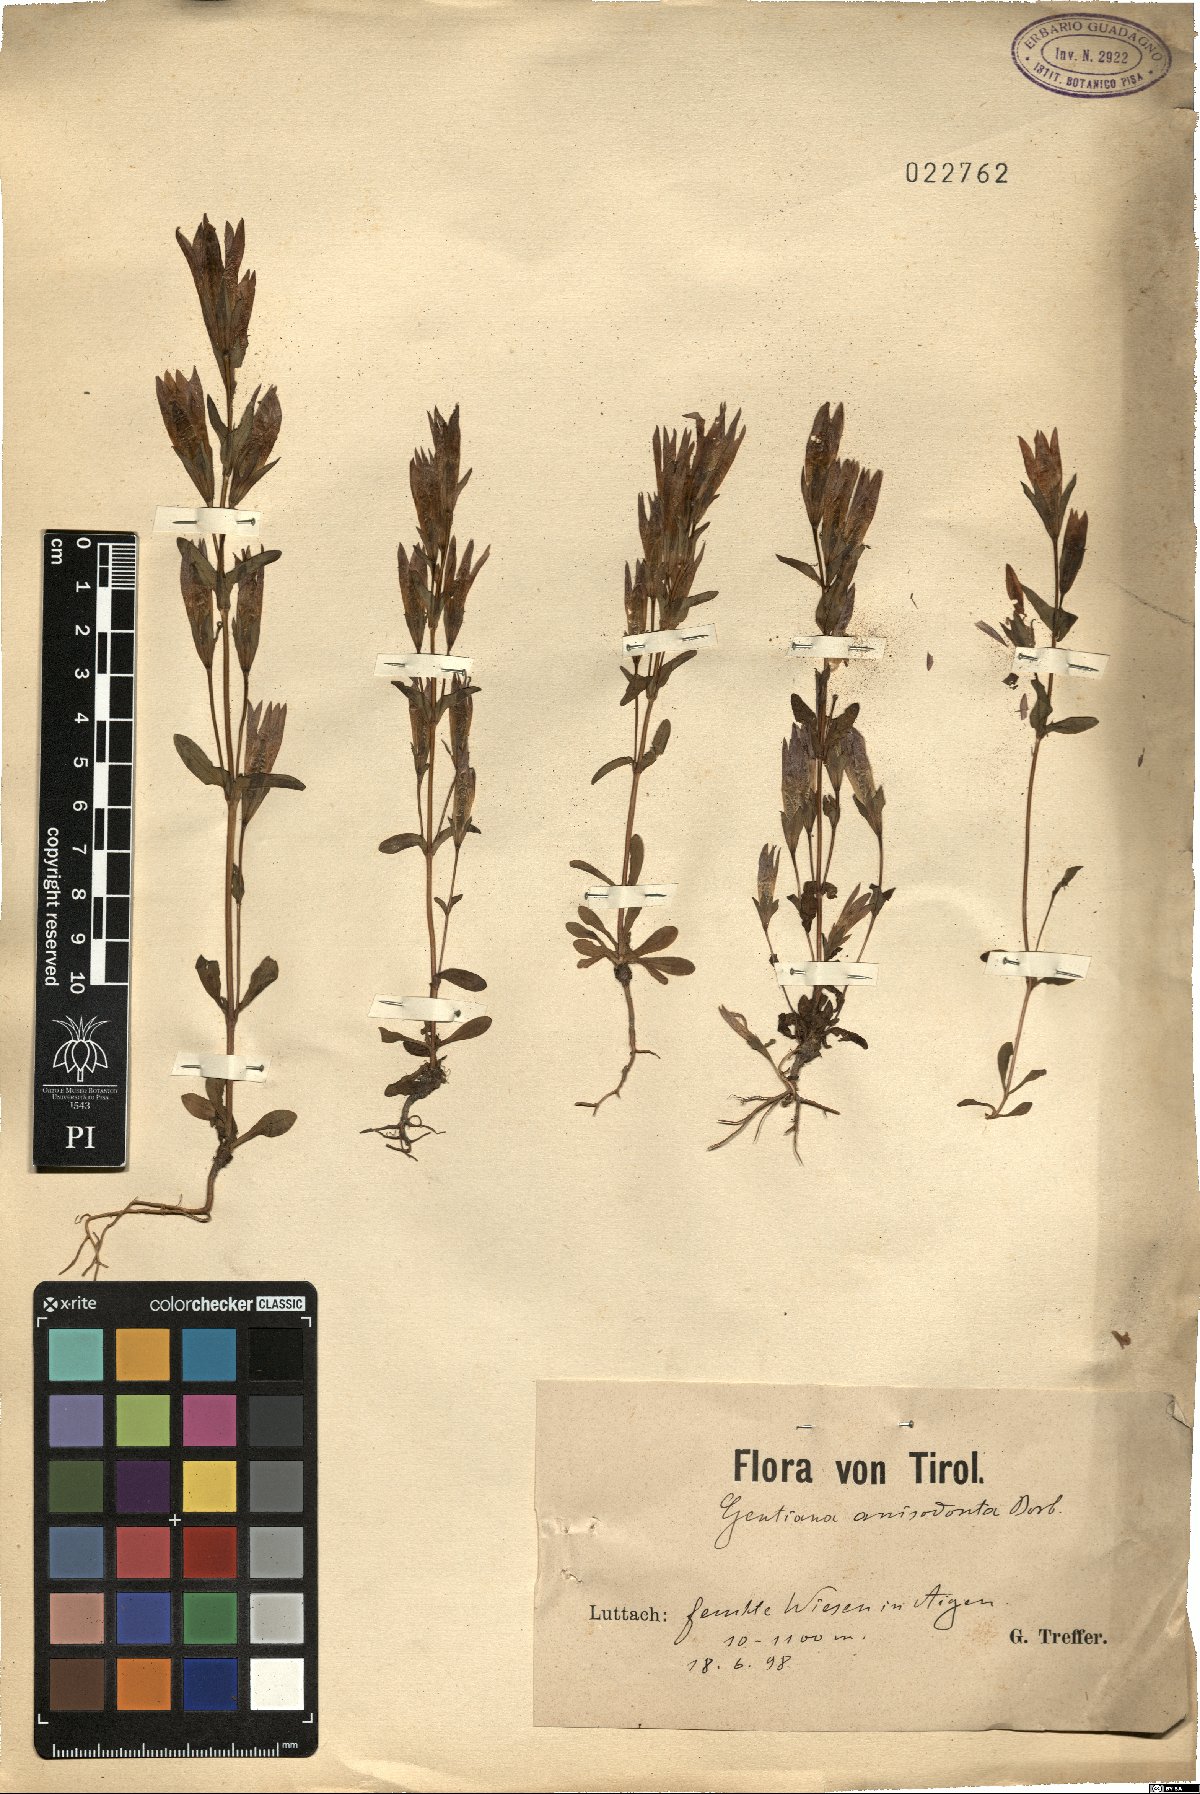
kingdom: Plantae
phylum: Tracheophyta
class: Magnoliopsida
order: Gentianales
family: Gentianaceae
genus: Gentianella
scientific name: Gentianella anisodonta
